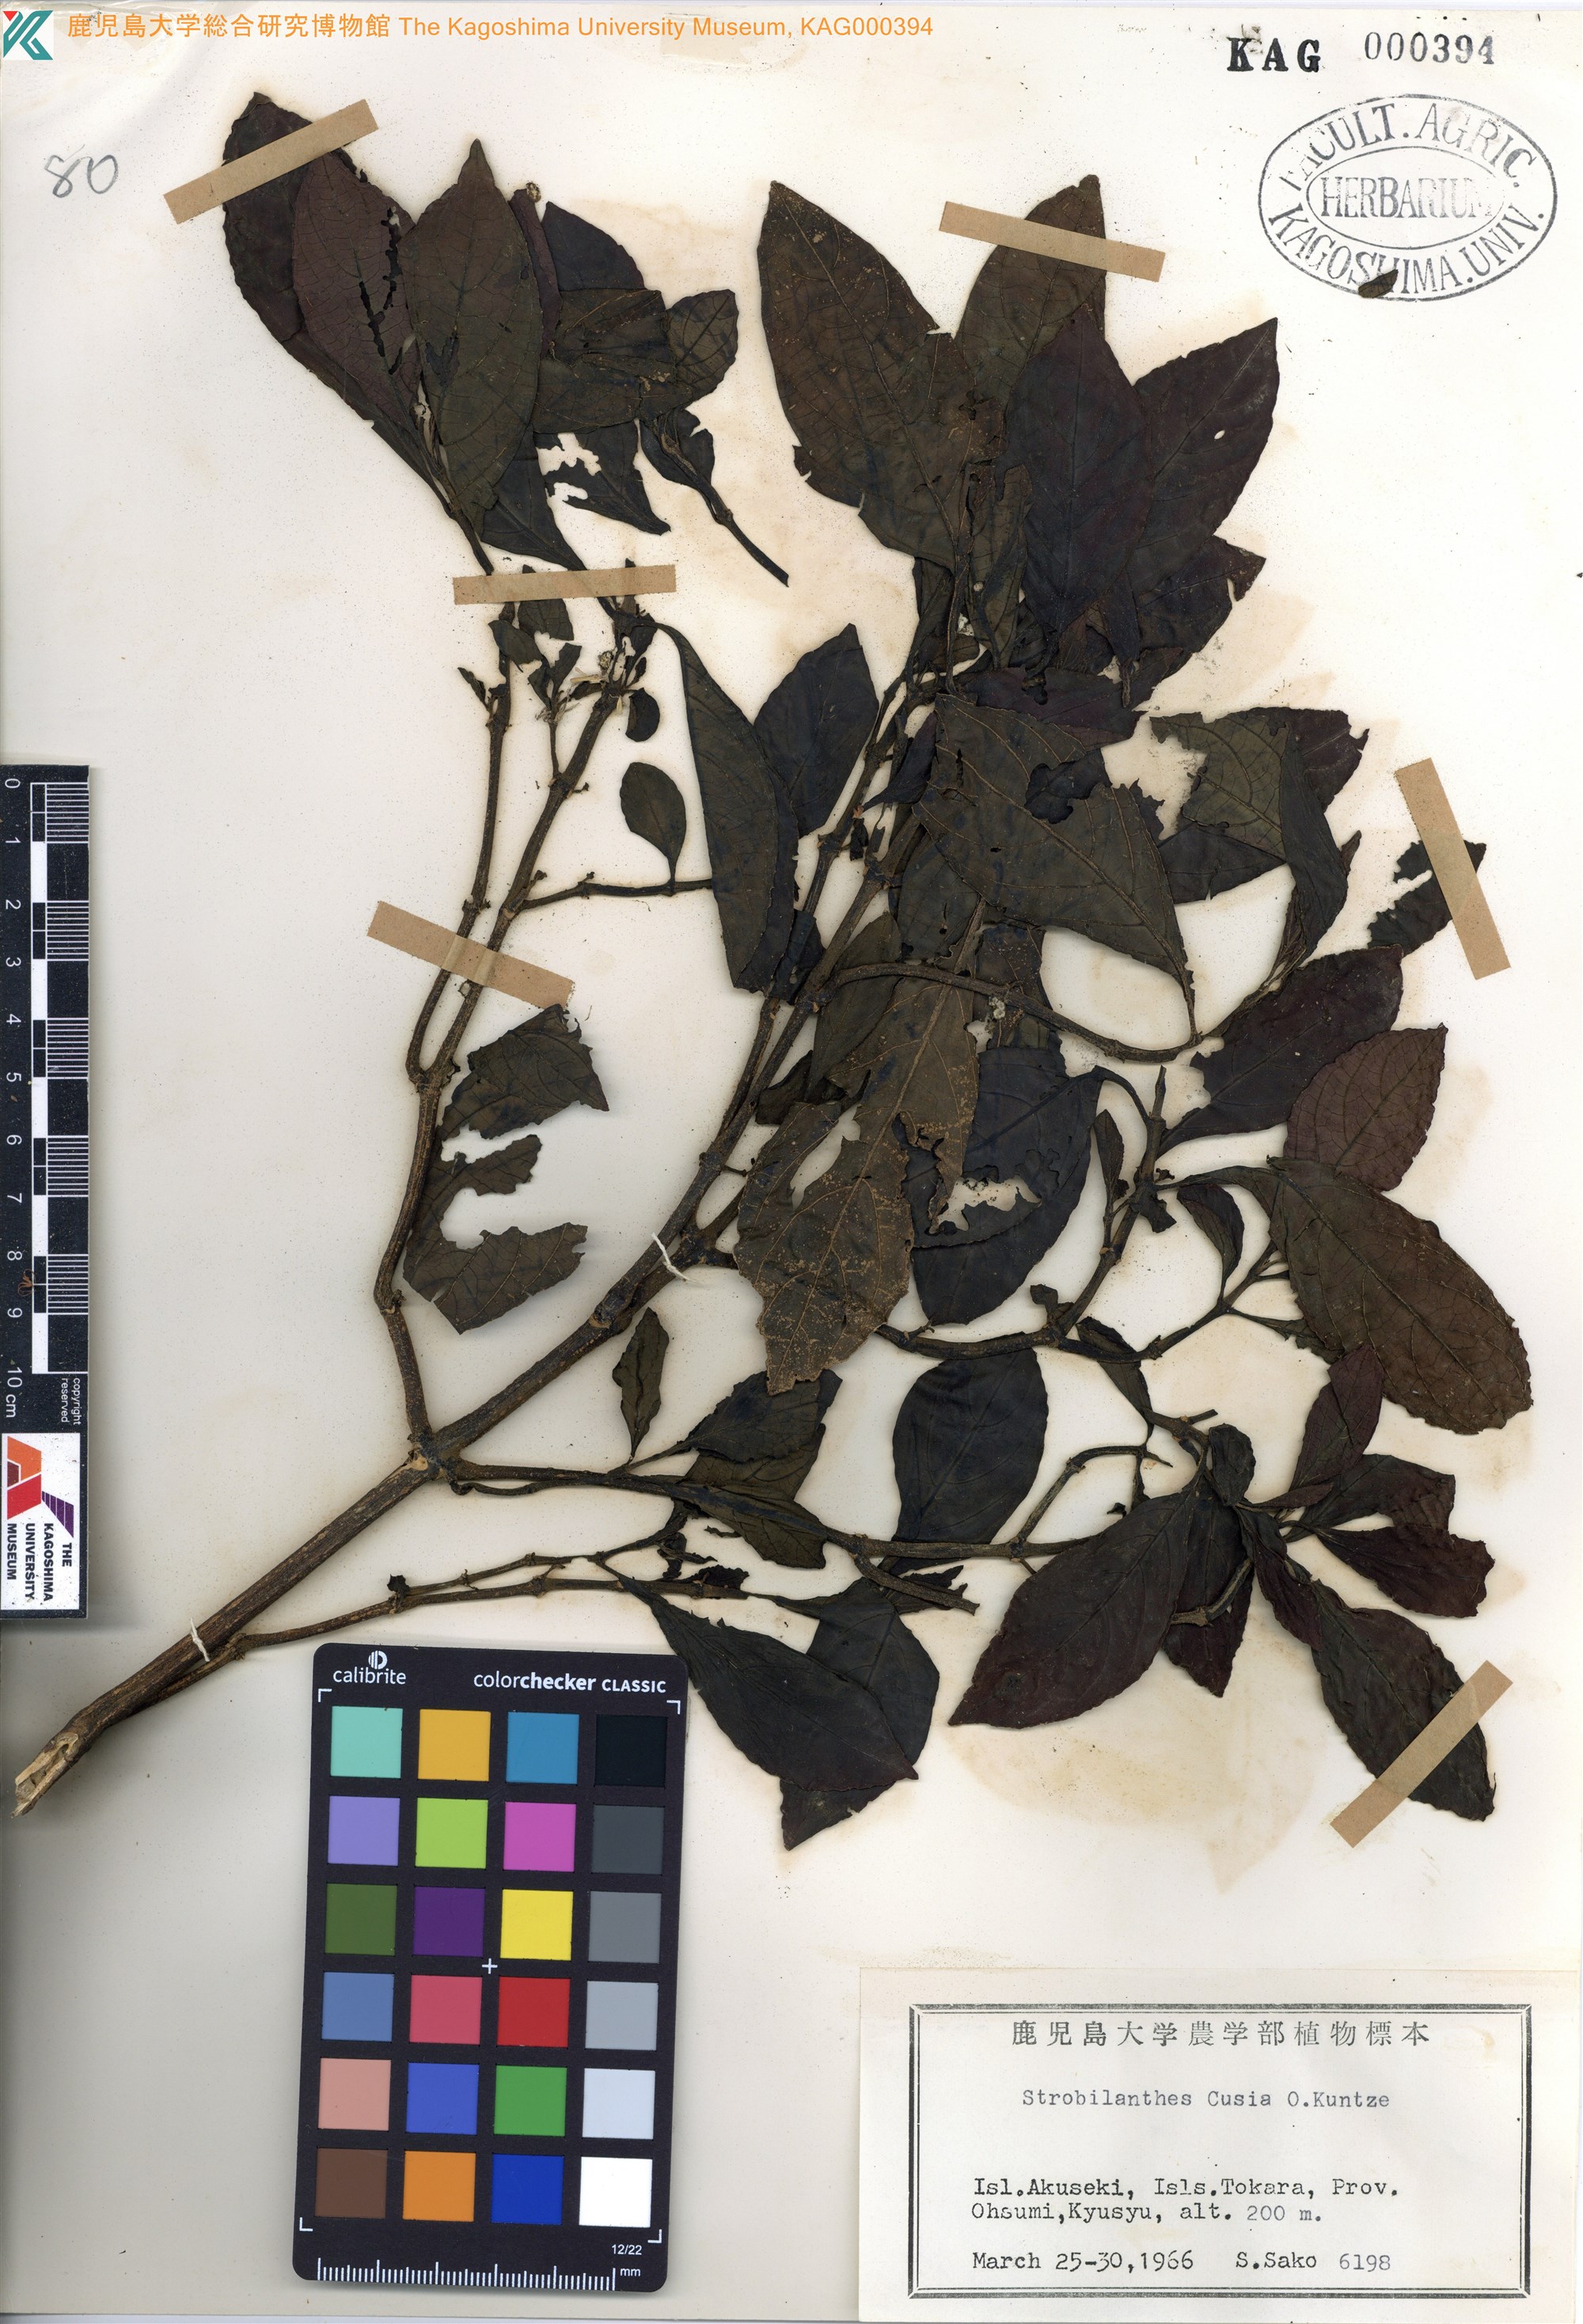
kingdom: Plantae
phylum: Tracheophyta
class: Magnoliopsida
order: Lamiales
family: Acanthaceae
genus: Strobilanthes
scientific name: Strobilanthes cusia
